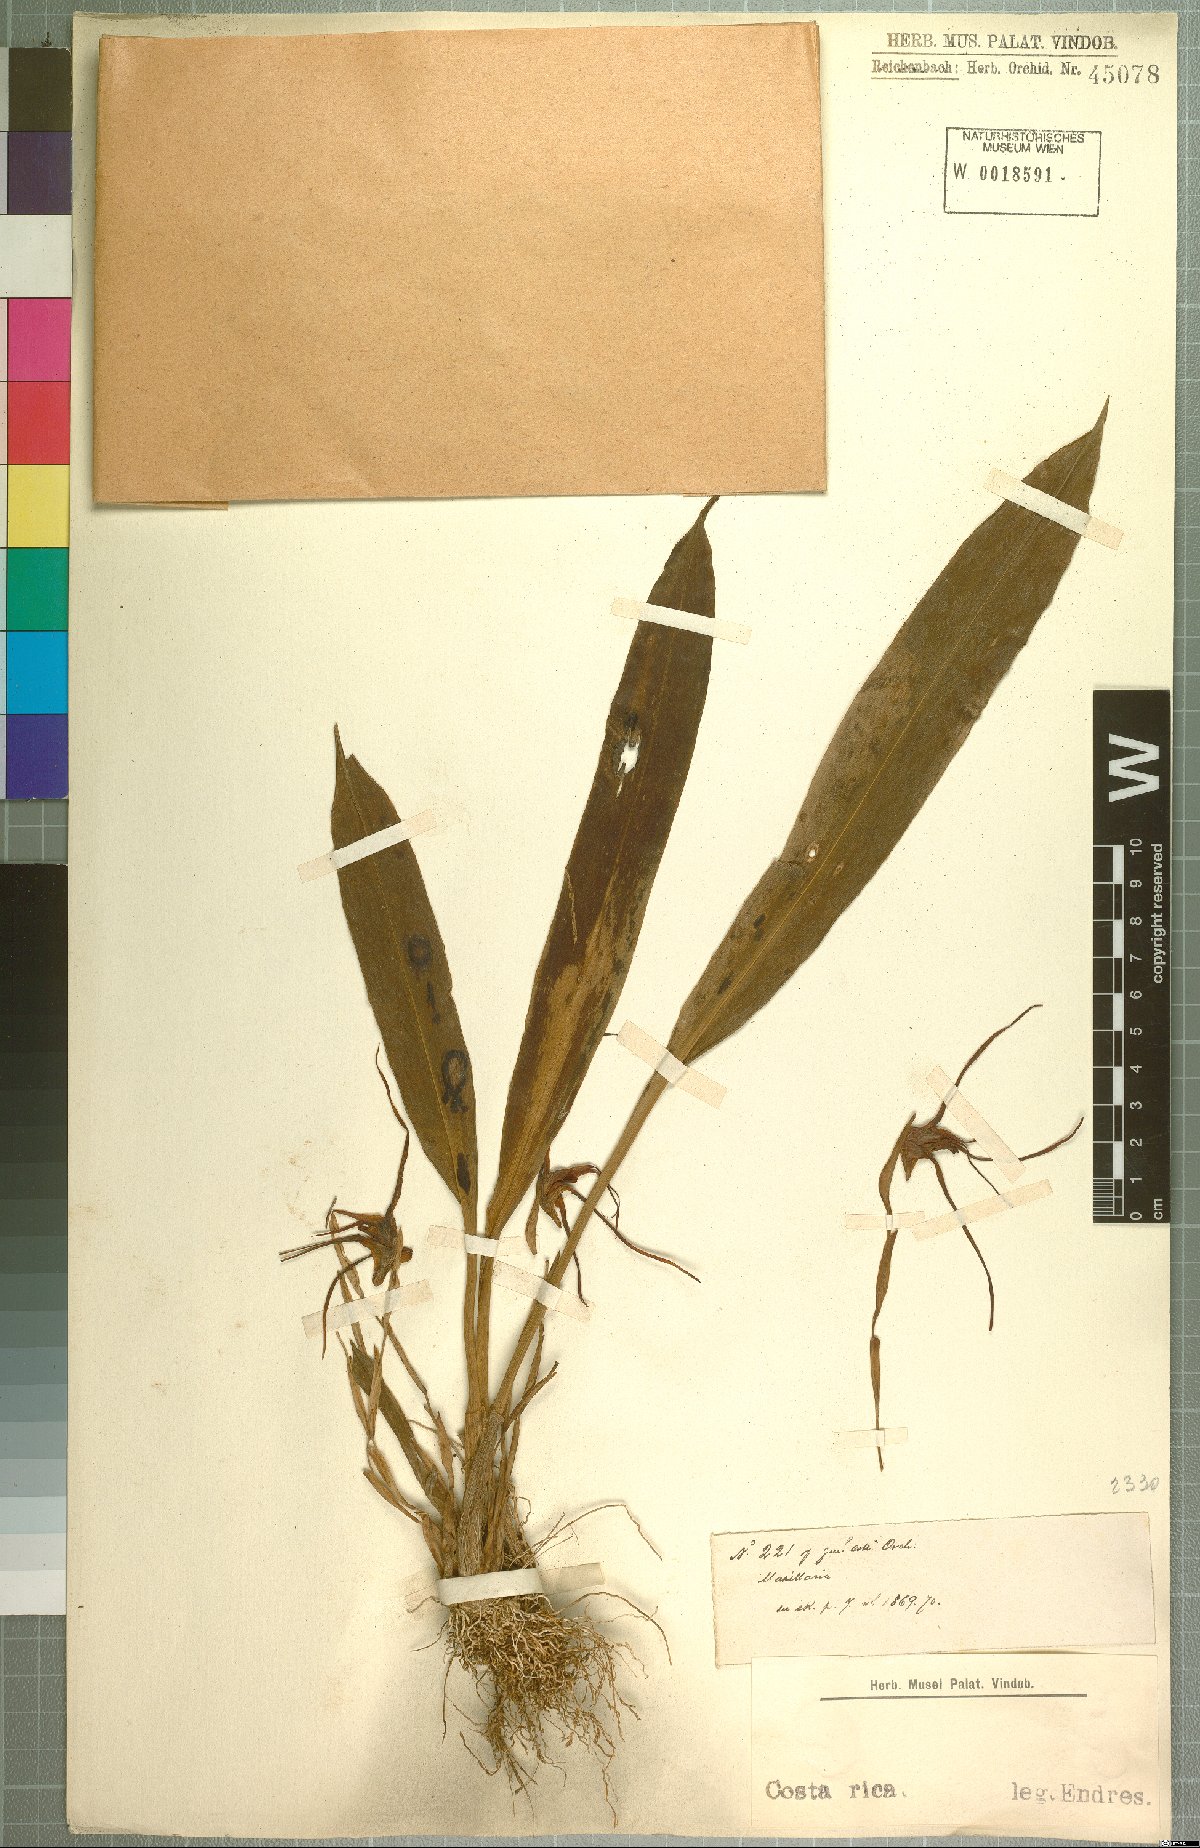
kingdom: Plantae
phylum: Tracheophyta
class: Liliopsida
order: Asparagales
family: Orchidaceae
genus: Maxillaria
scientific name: Maxillaria
